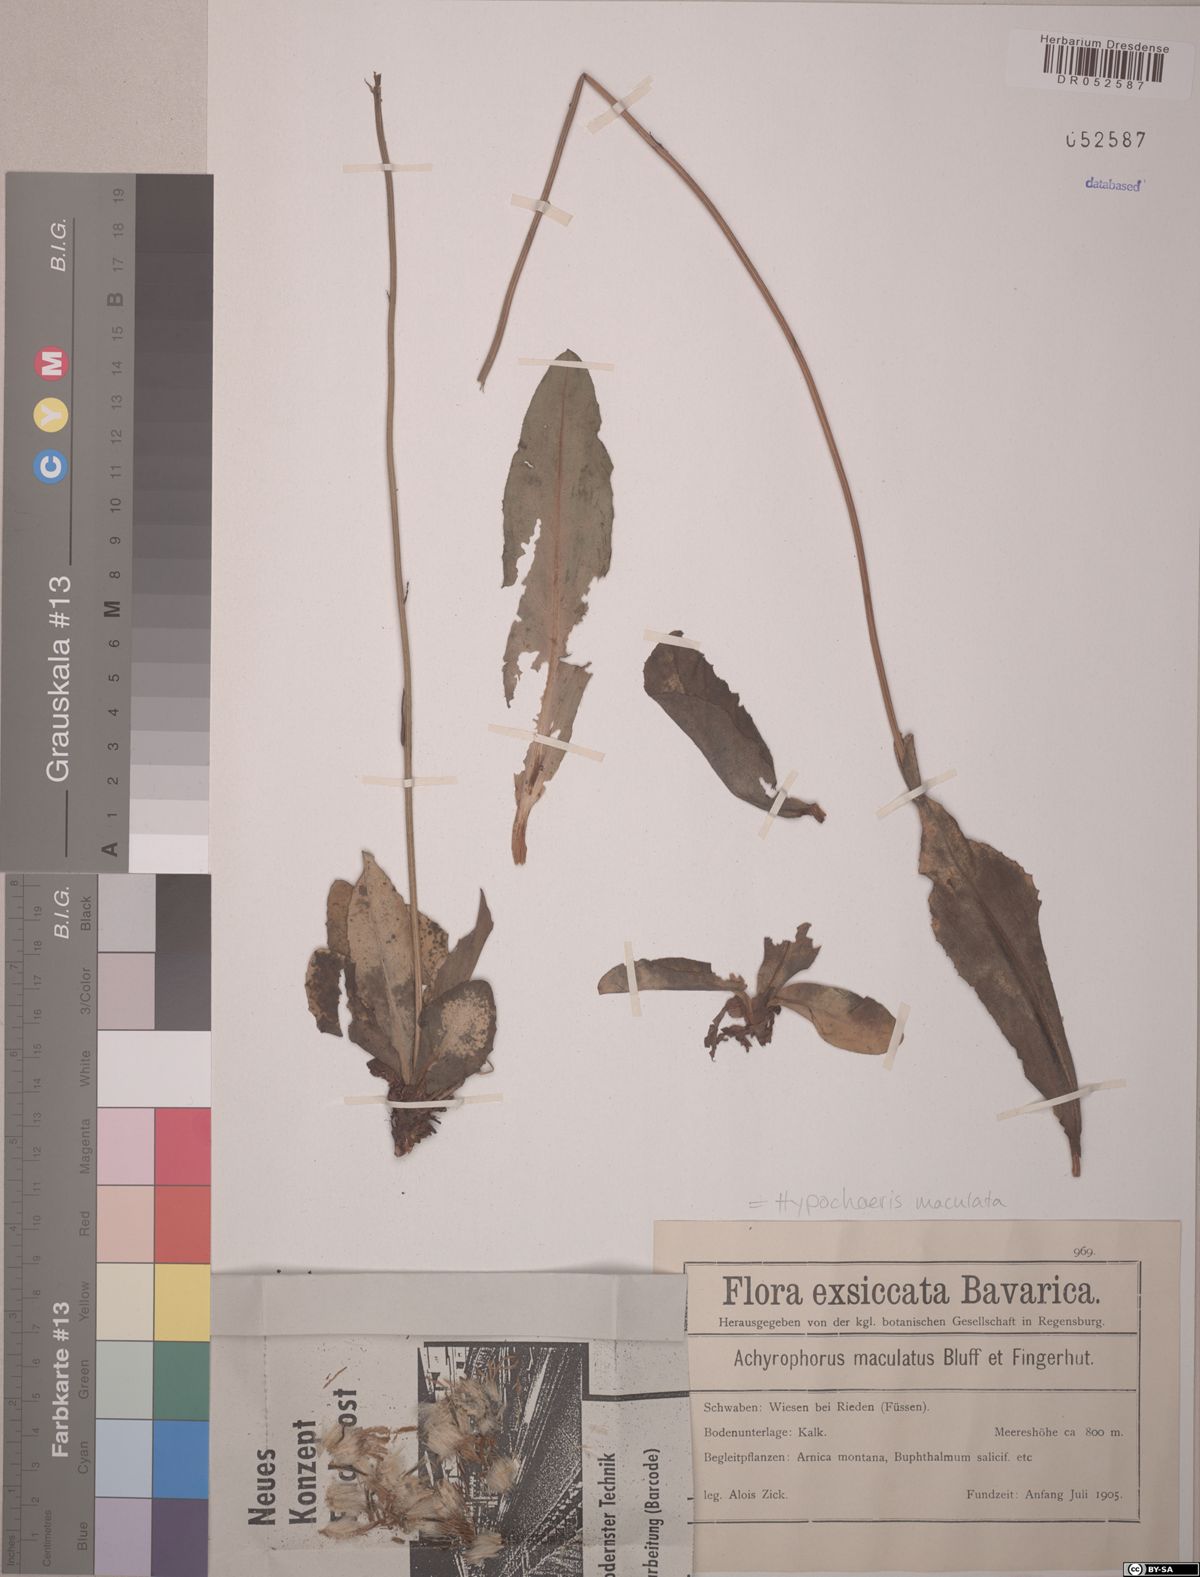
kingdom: Plantae
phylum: Tracheophyta
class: Magnoliopsida
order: Asterales
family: Asteraceae
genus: Trommsdorffia
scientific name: Trommsdorffia maculata
